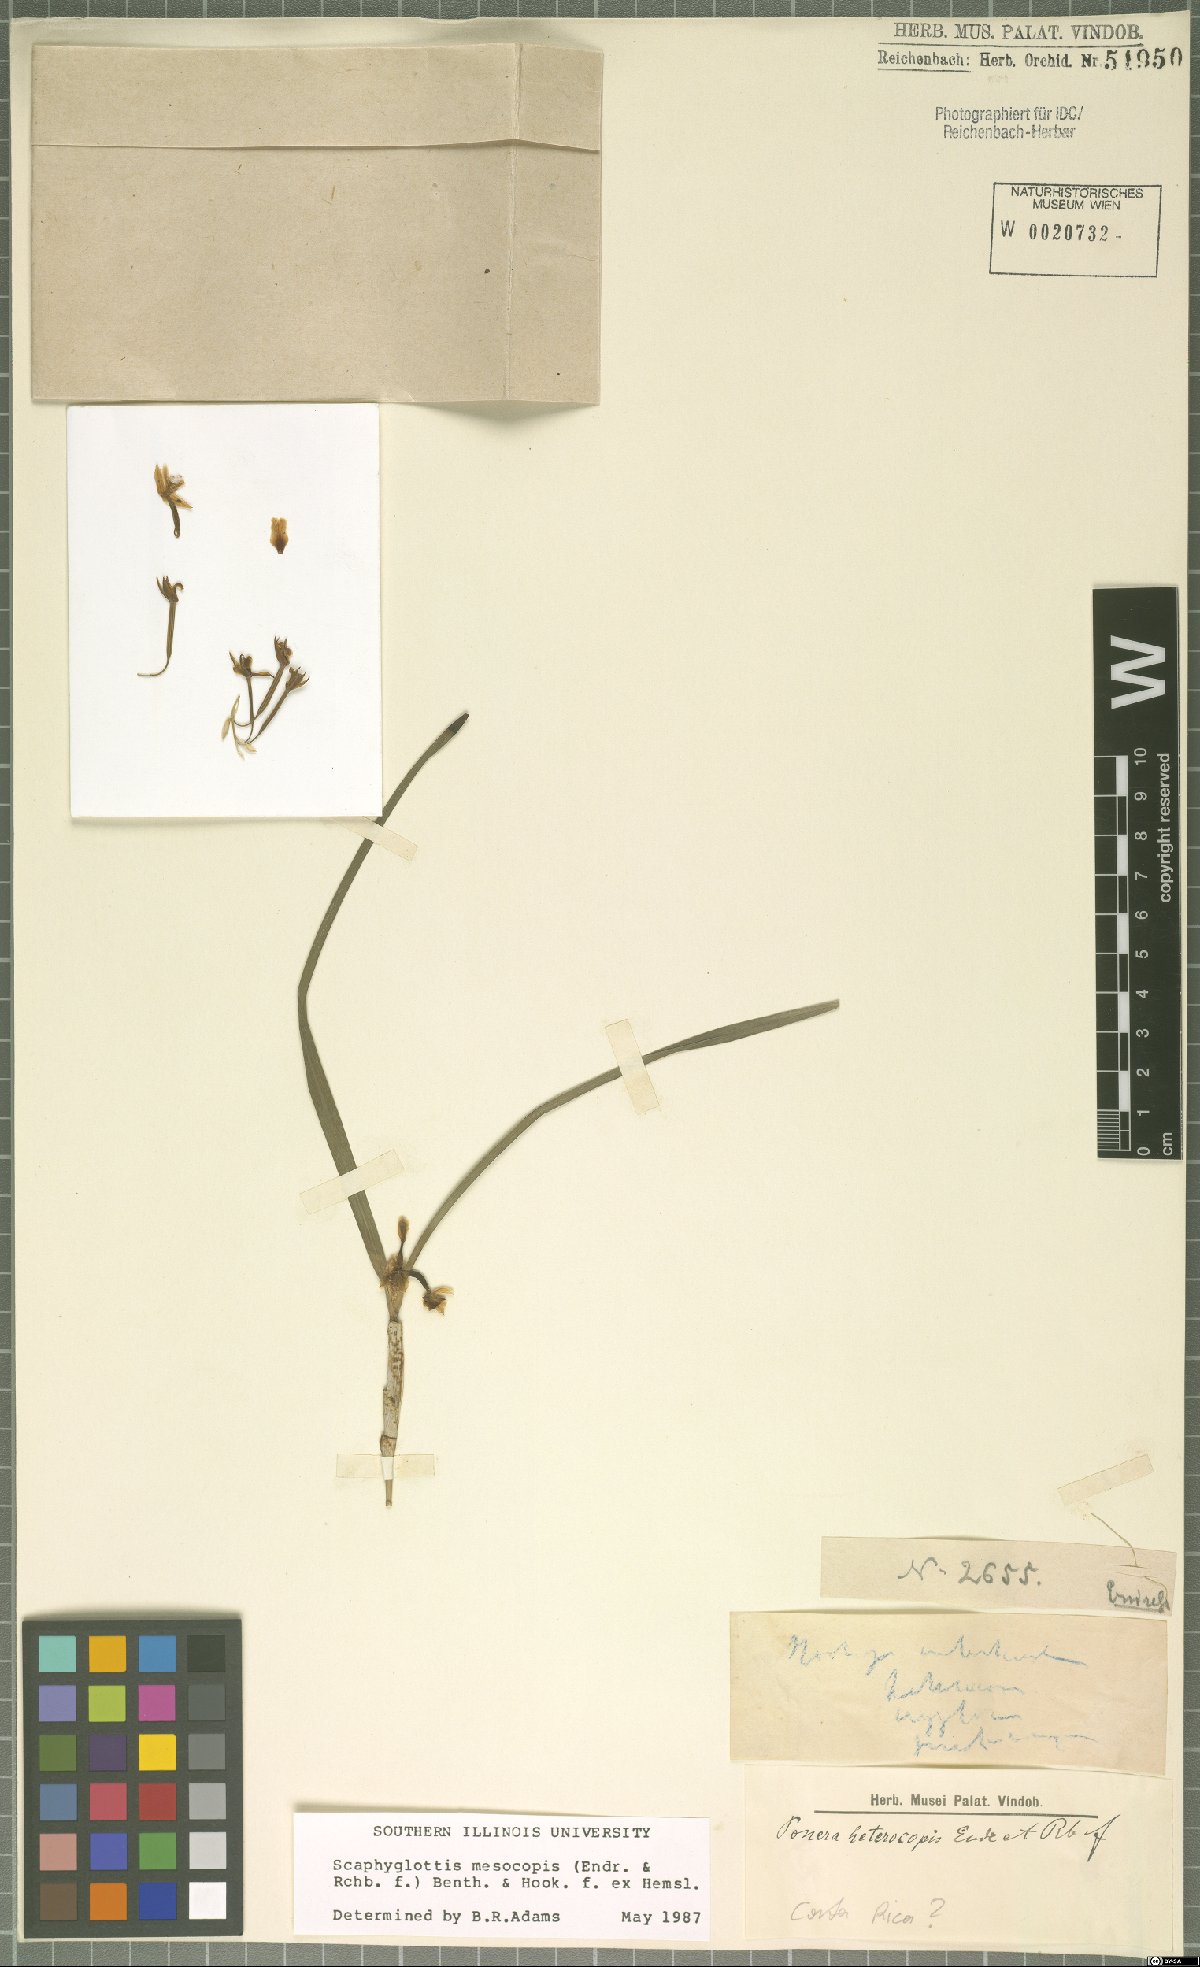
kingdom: Plantae
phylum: Tracheophyta
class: Liliopsida
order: Asparagales
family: Orchidaceae
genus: Scaphyglottis
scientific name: Scaphyglottis mesocopis
